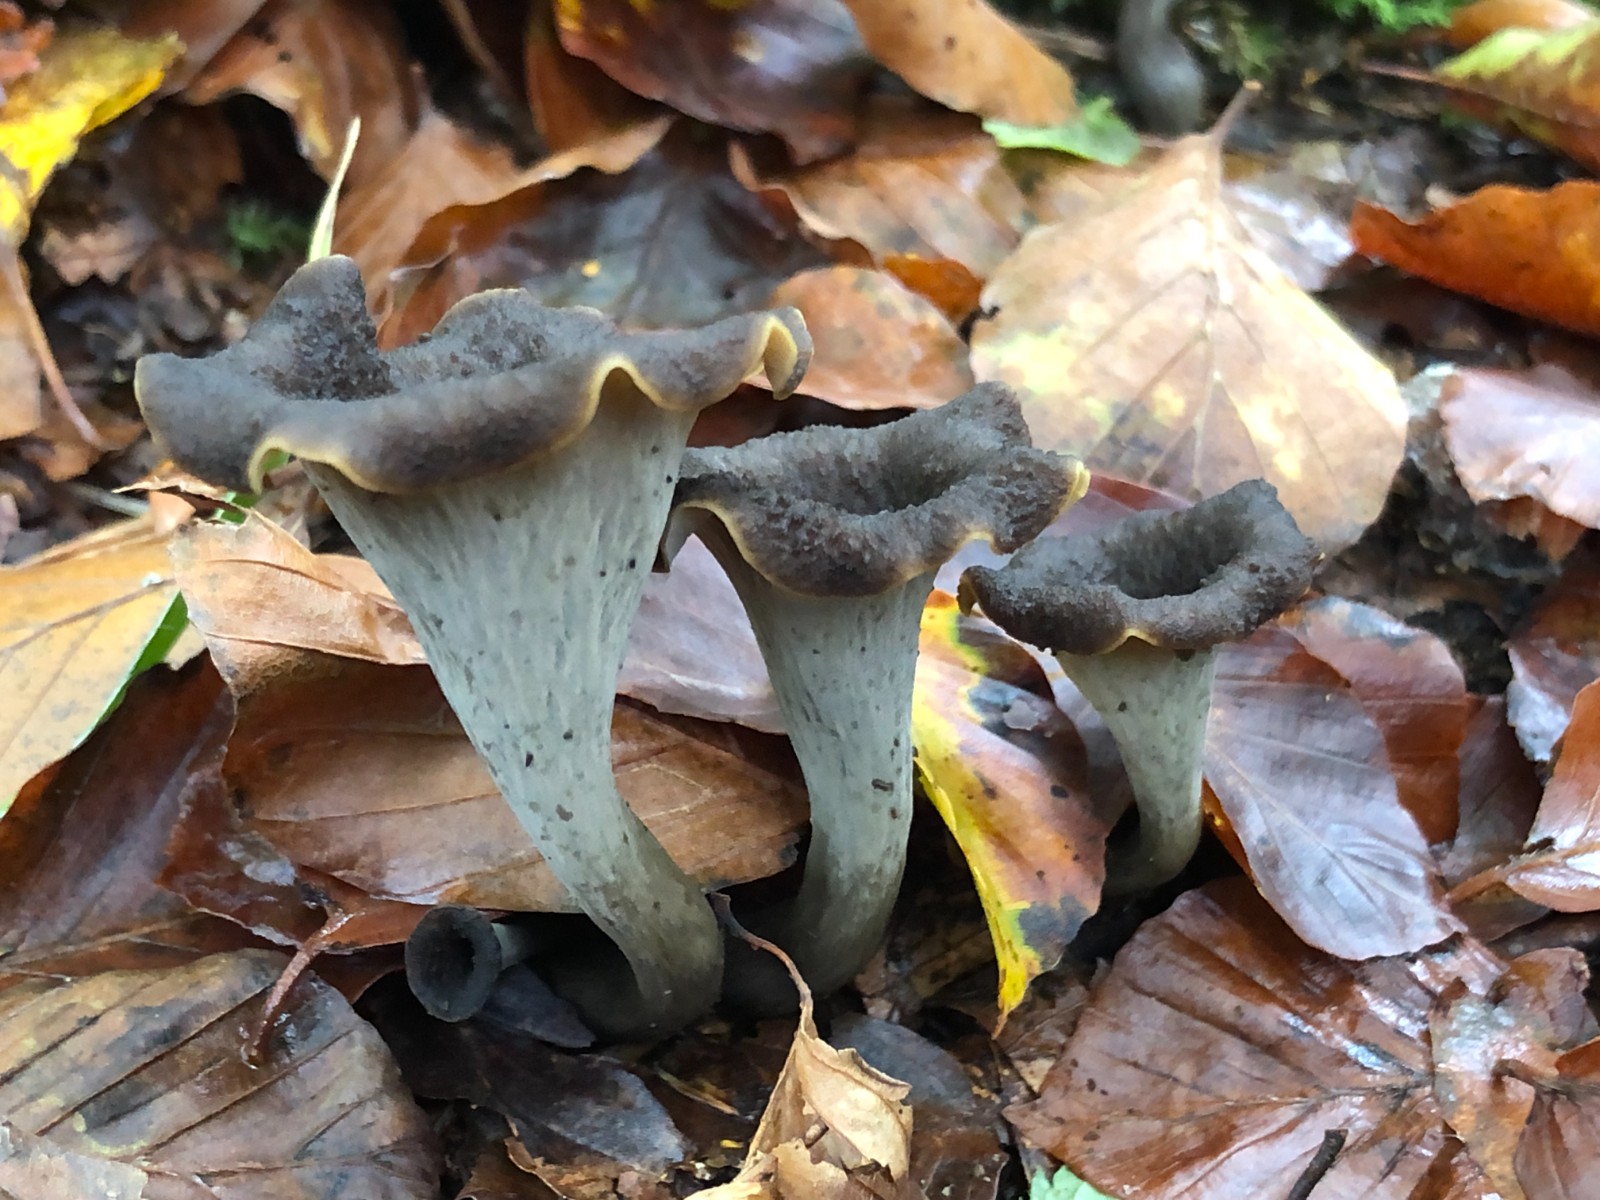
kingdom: Fungi
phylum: Basidiomycota
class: Agaricomycetes
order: Cantharellales
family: Hydnaceae
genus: Craterellus
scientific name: Craterellus cornucopioides
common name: trompetsvamp
